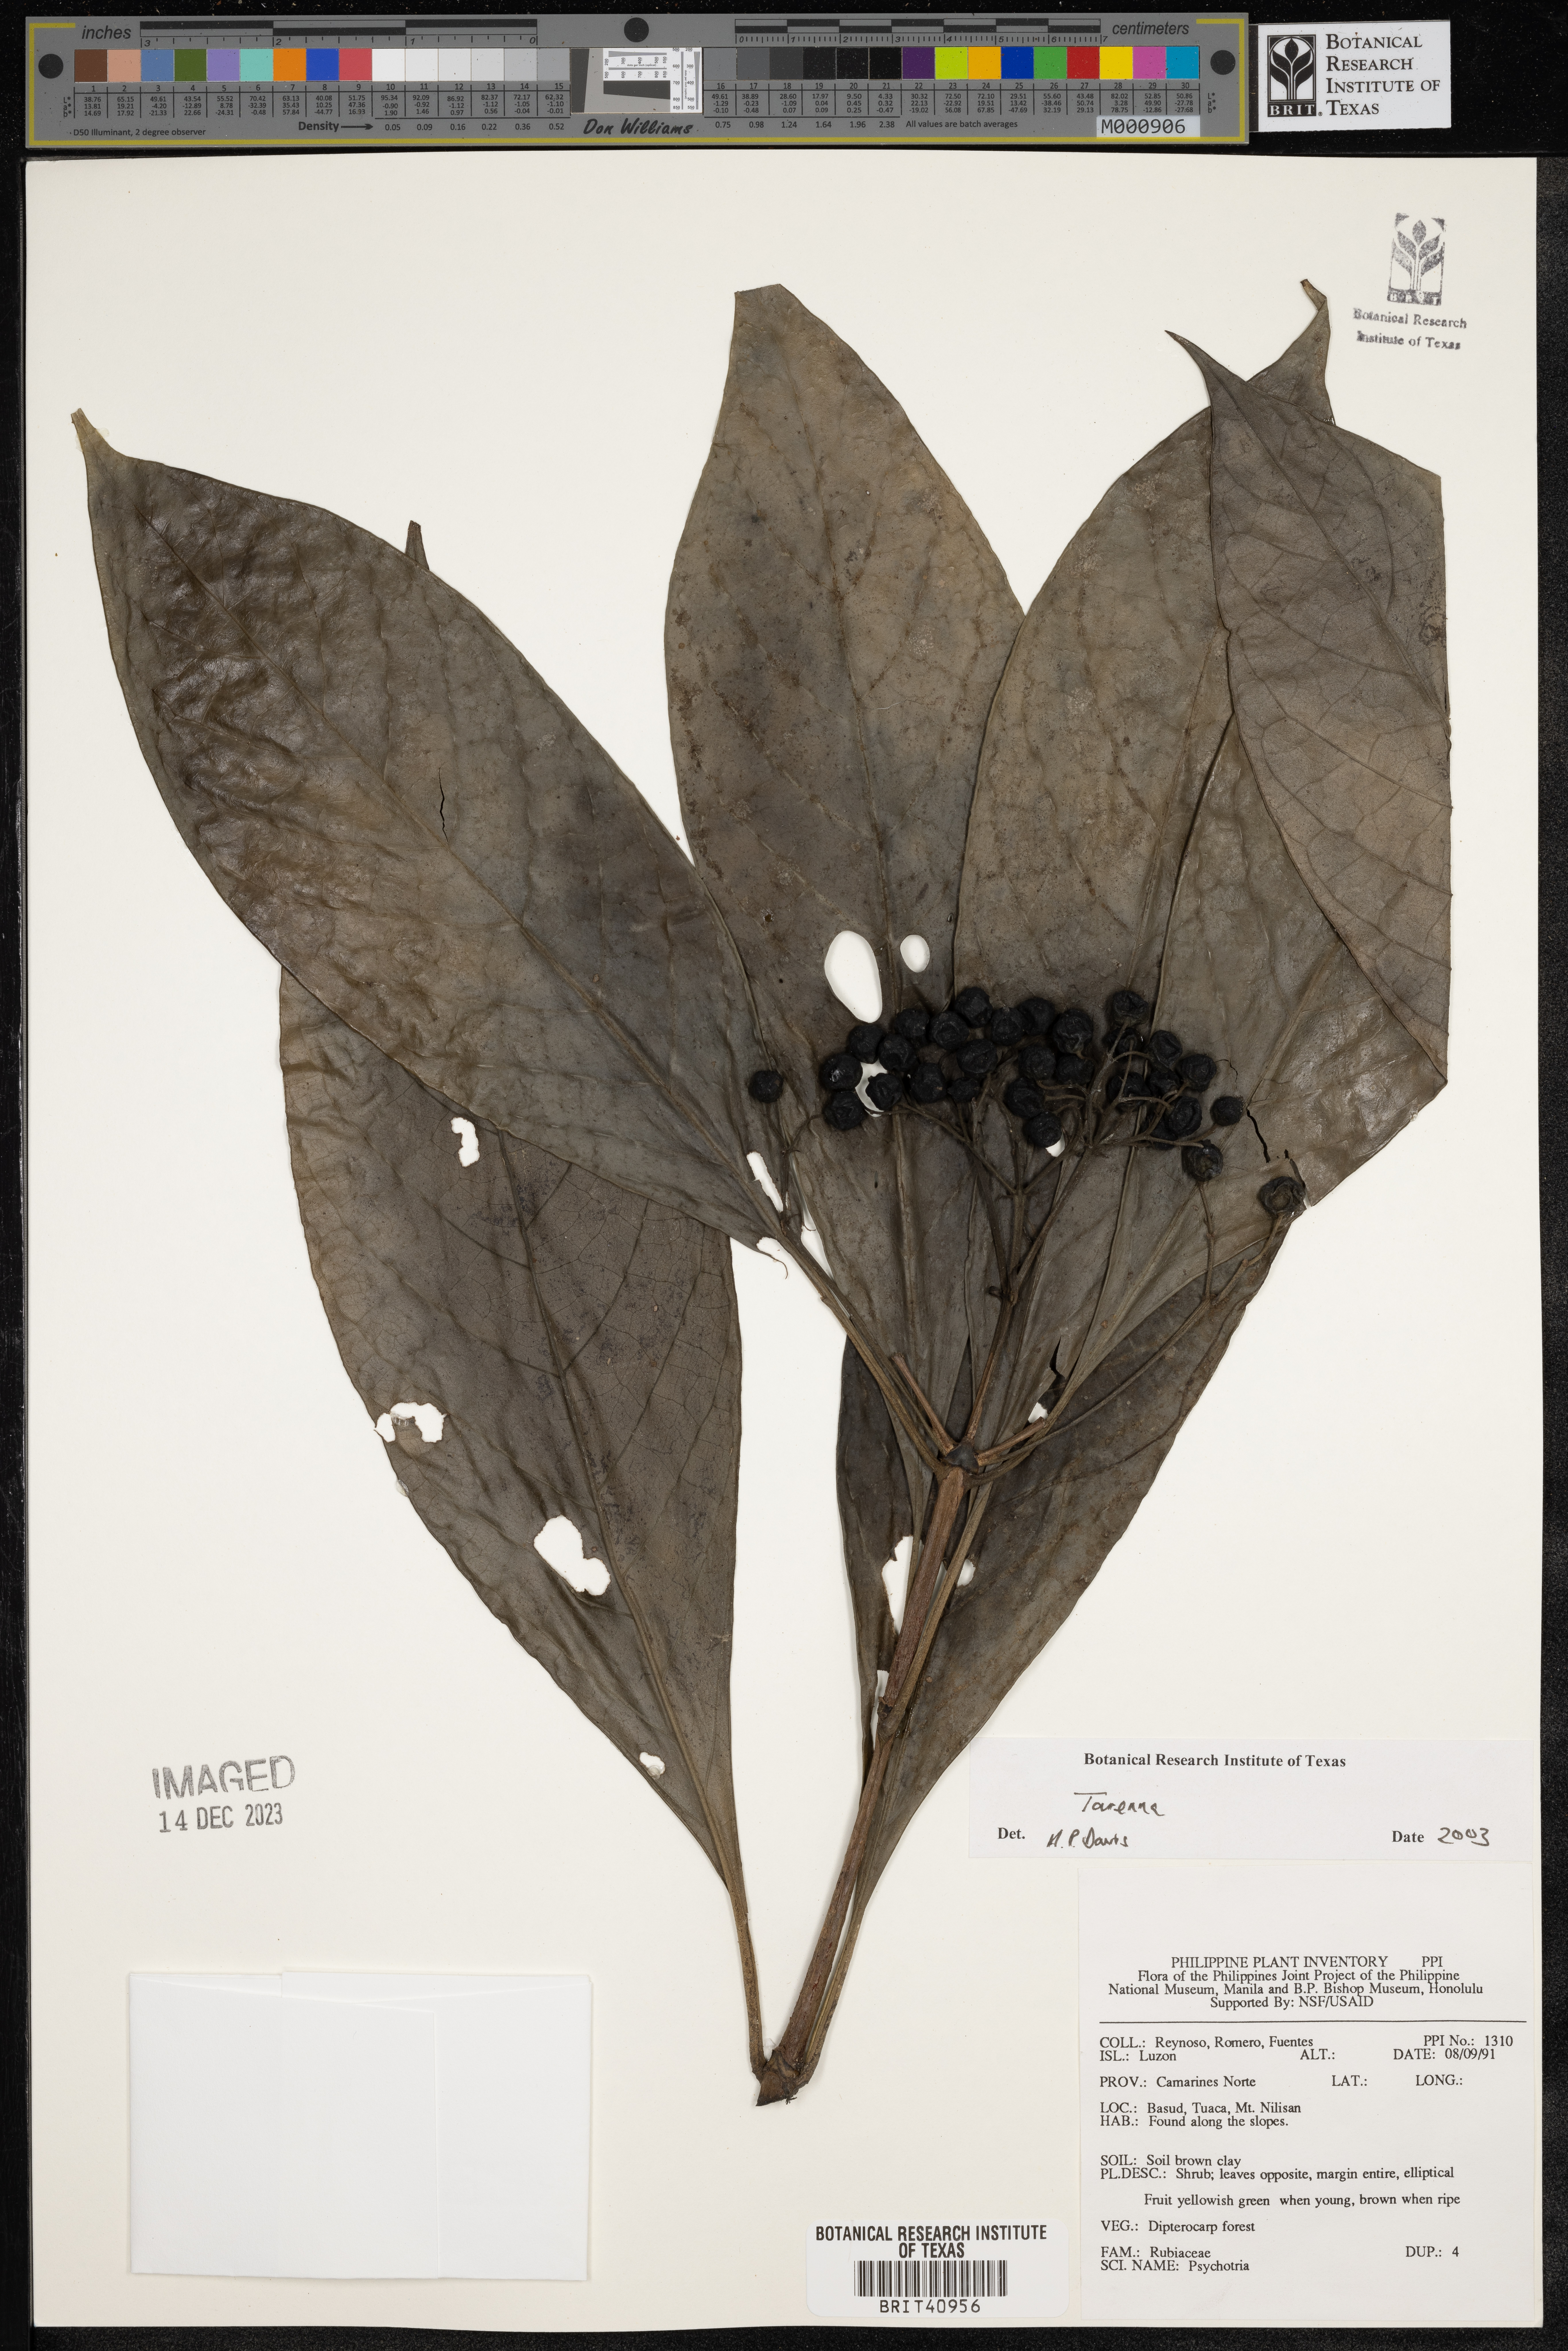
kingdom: Plantae
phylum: Tracheophyta
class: Magnoliopsida
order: Gentianales
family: Rubiaceae
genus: Tarenna
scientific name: Tarenna
